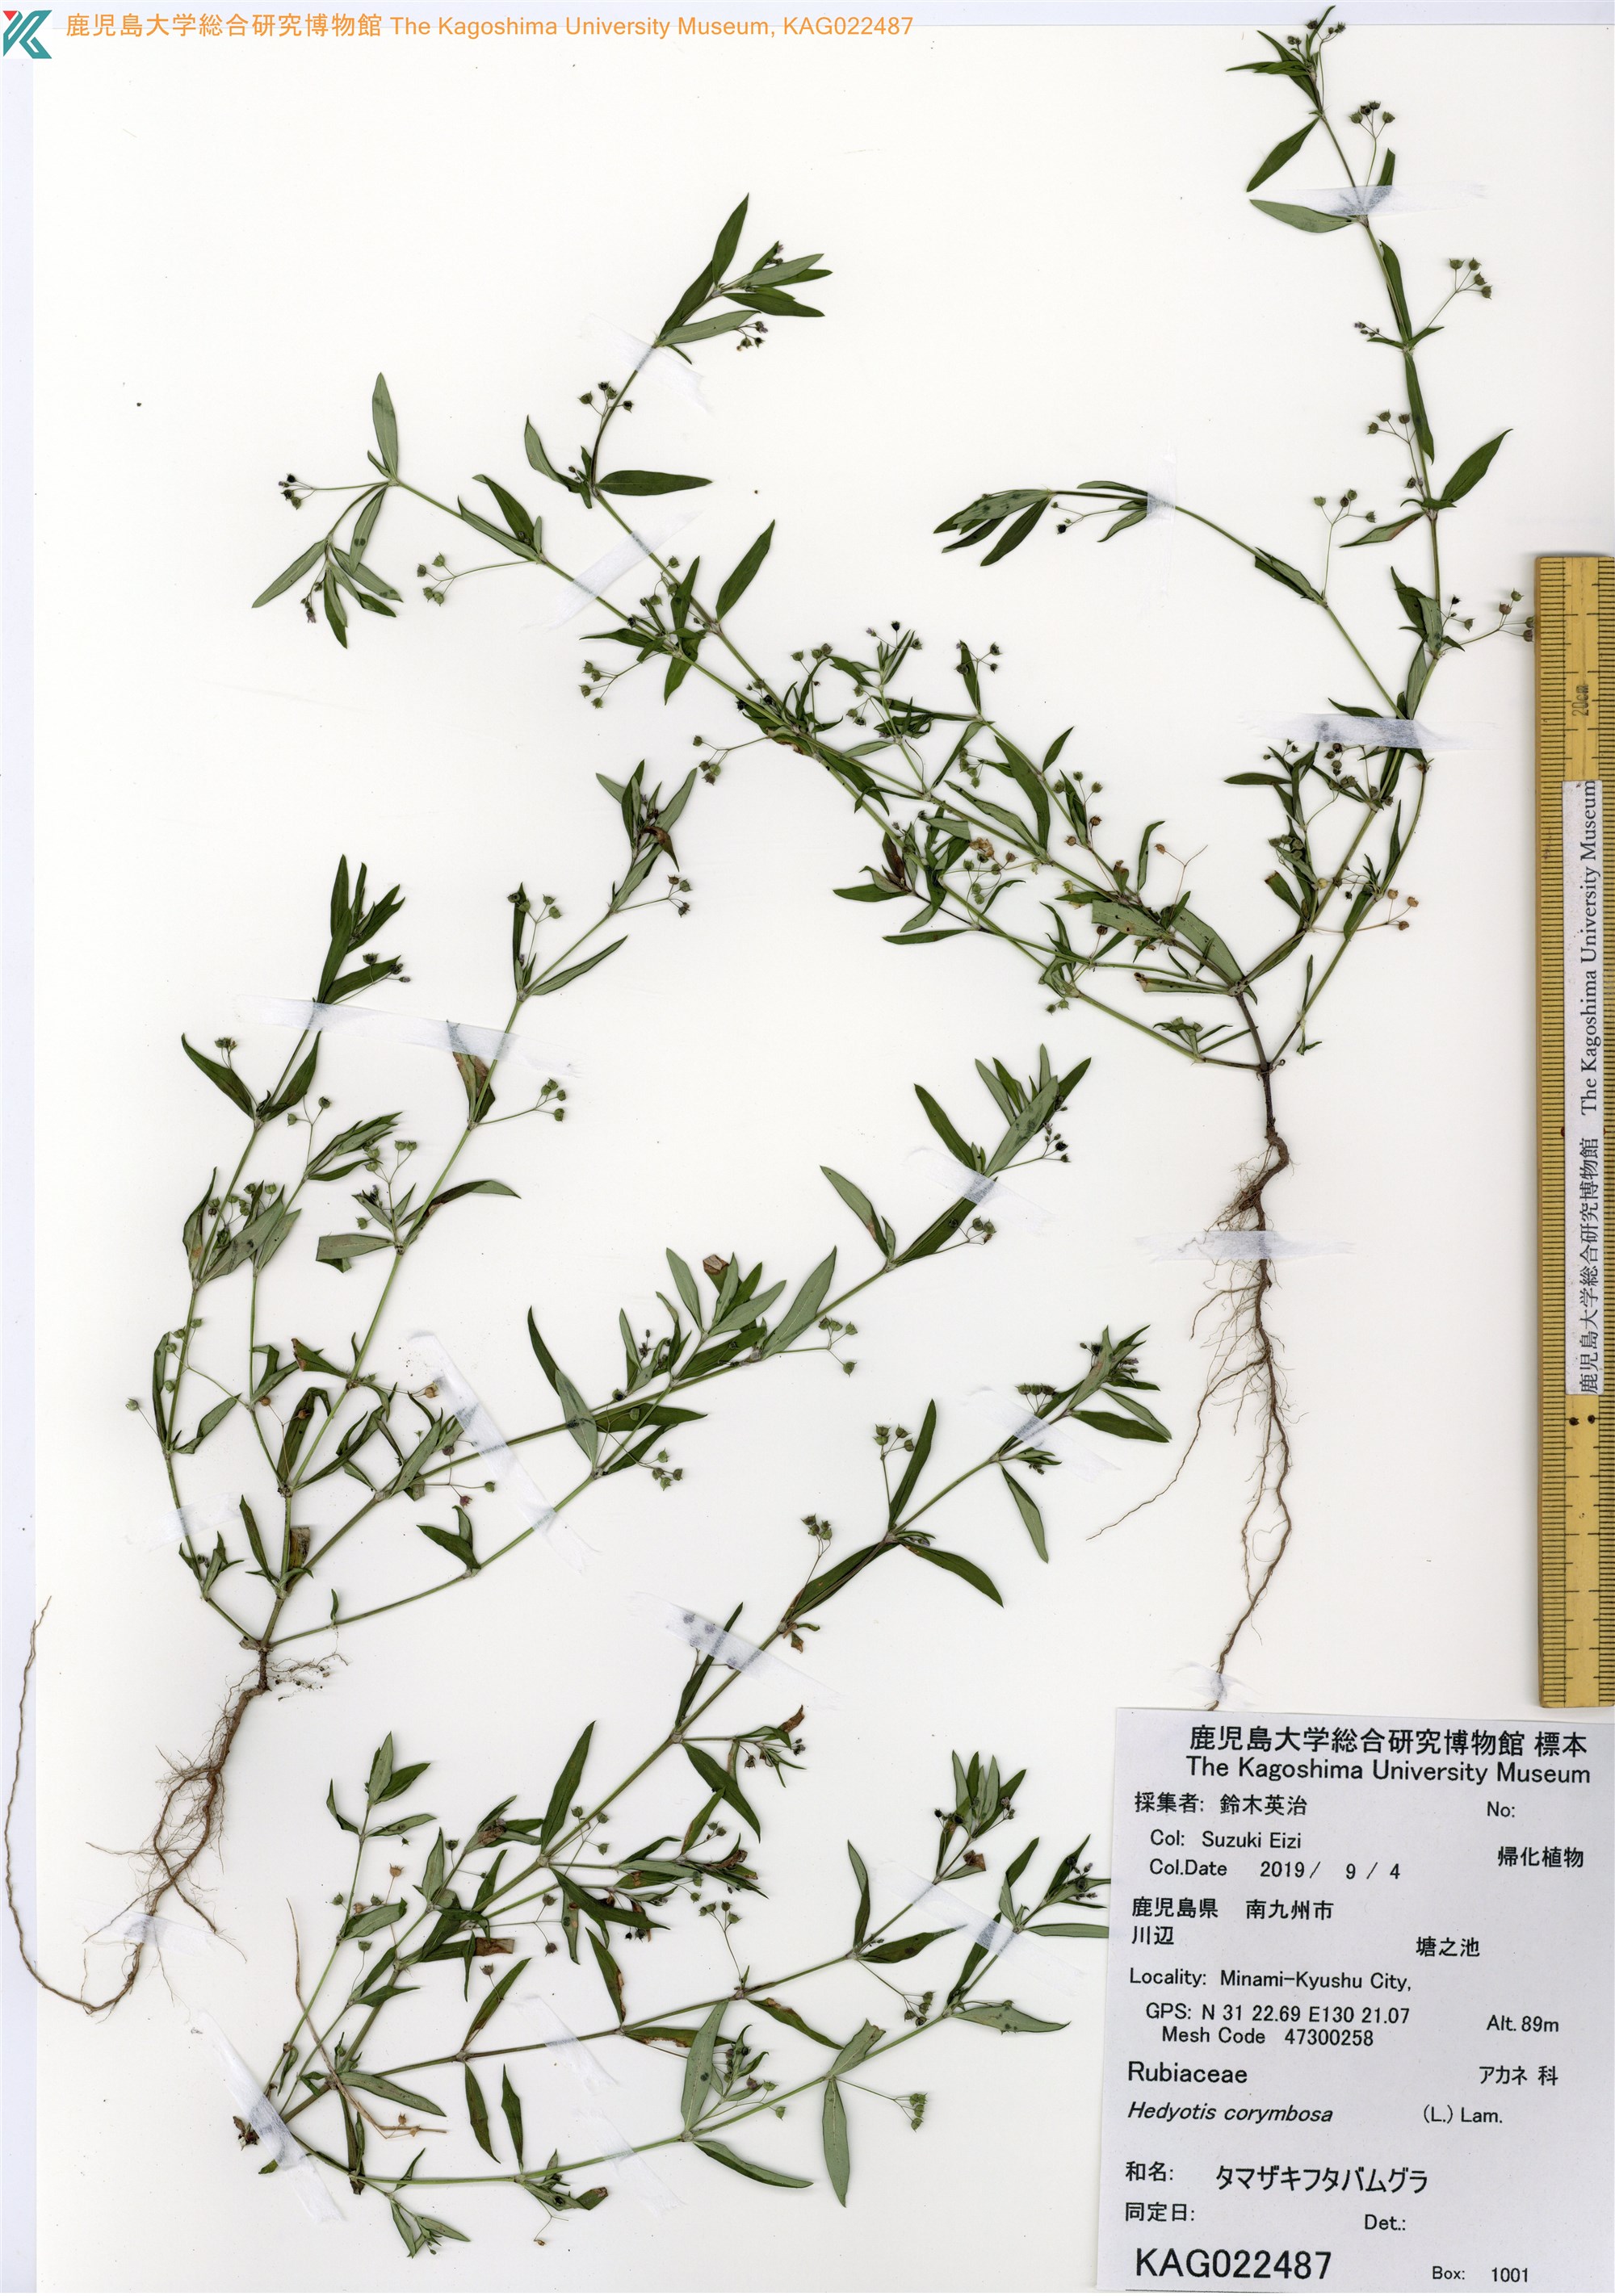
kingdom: Plantae
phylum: Tracheophyta
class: Magnoliopsida
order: Gentianales
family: Rubiaceae
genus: Oldenlandia
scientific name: Oldenlandia corymbosa
